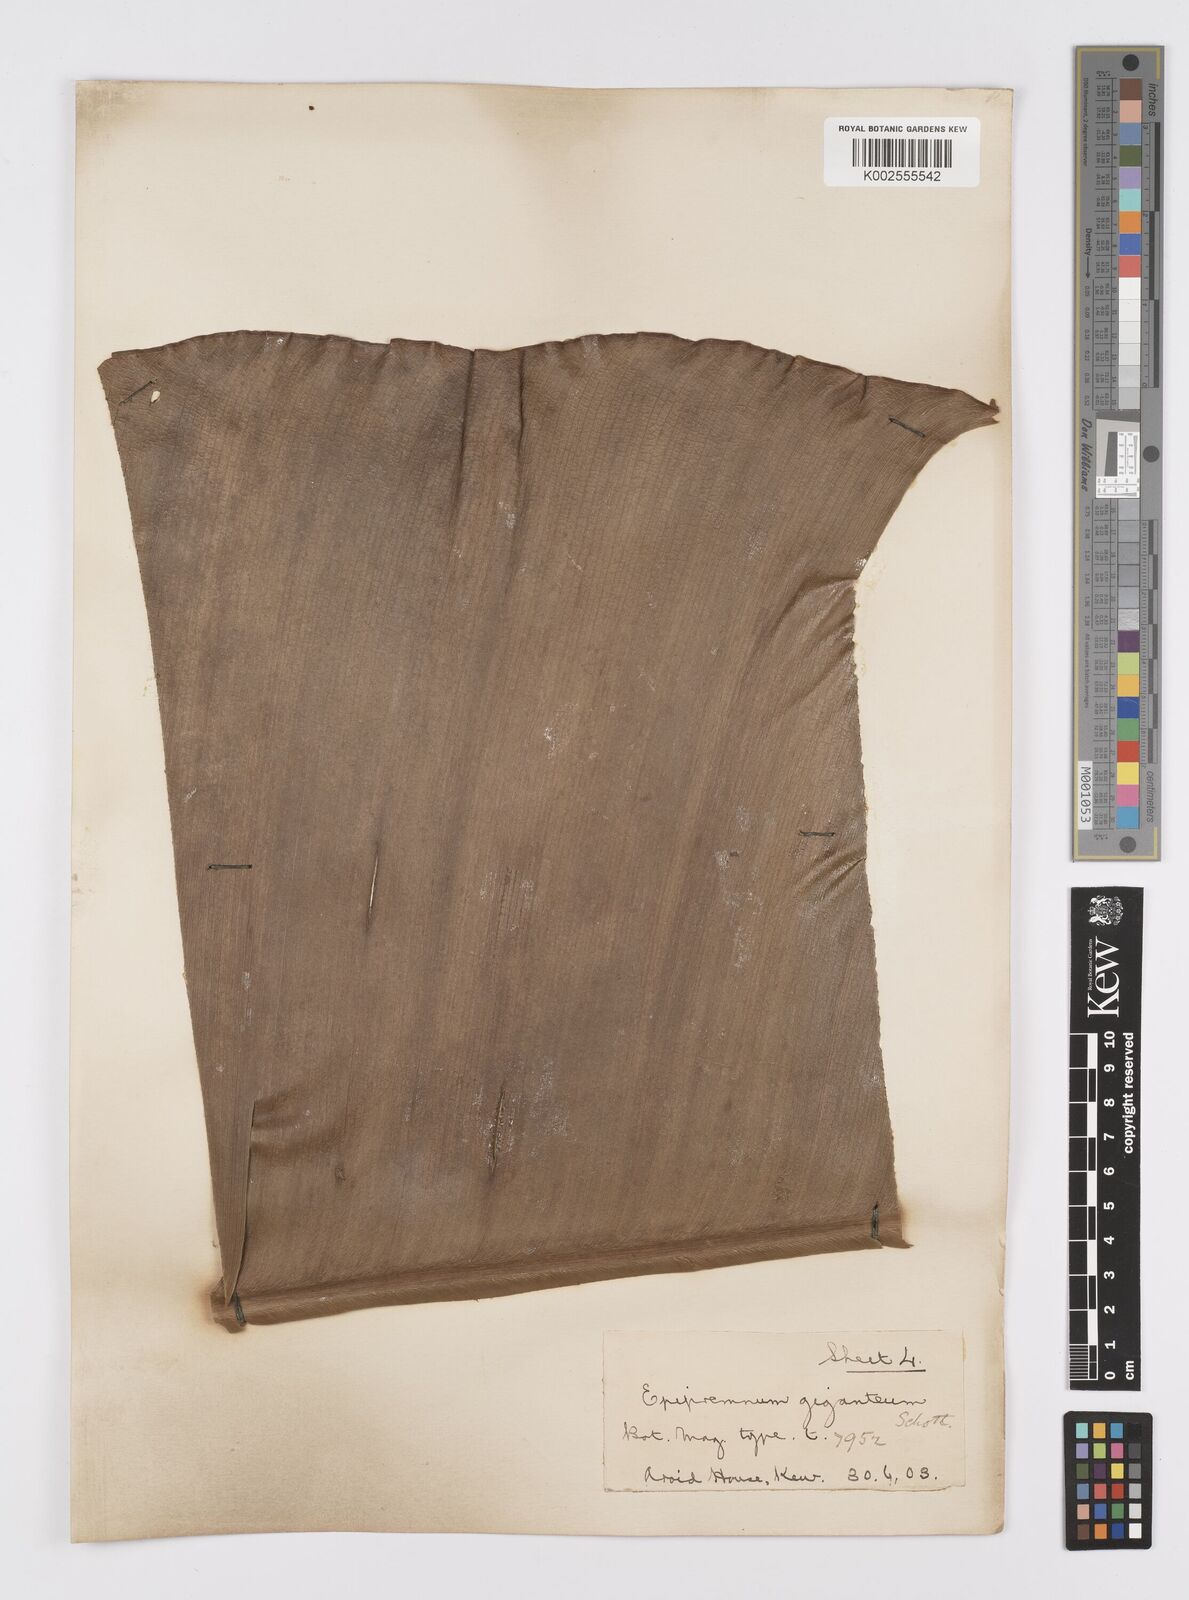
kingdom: Plantae
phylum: Tracheophyta
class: Liliopsida
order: Alismatales
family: Araceae
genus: Epipremnum
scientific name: Epipremnum giganteum
